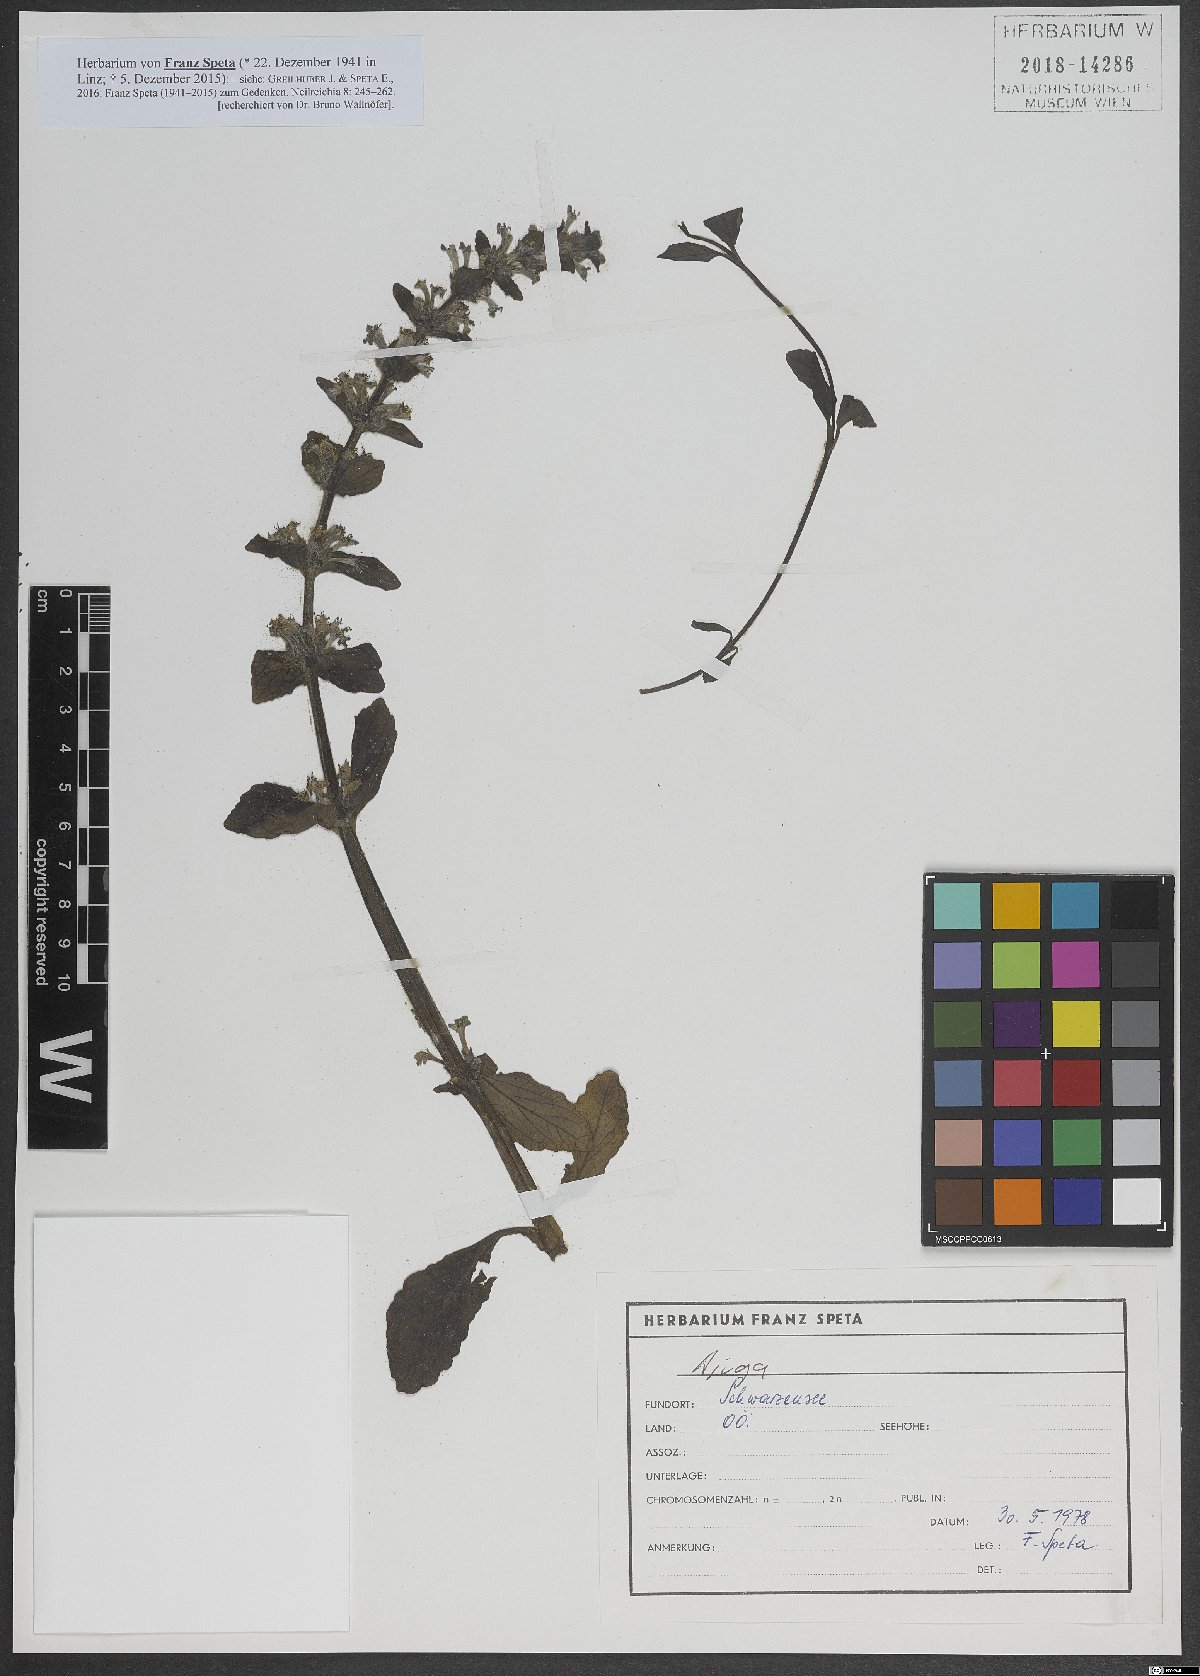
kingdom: Plantae
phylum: Tracheophyta
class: Magnoliopsida
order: Lamiales
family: Lamiaceae
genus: Ajuga
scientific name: Ajuga
